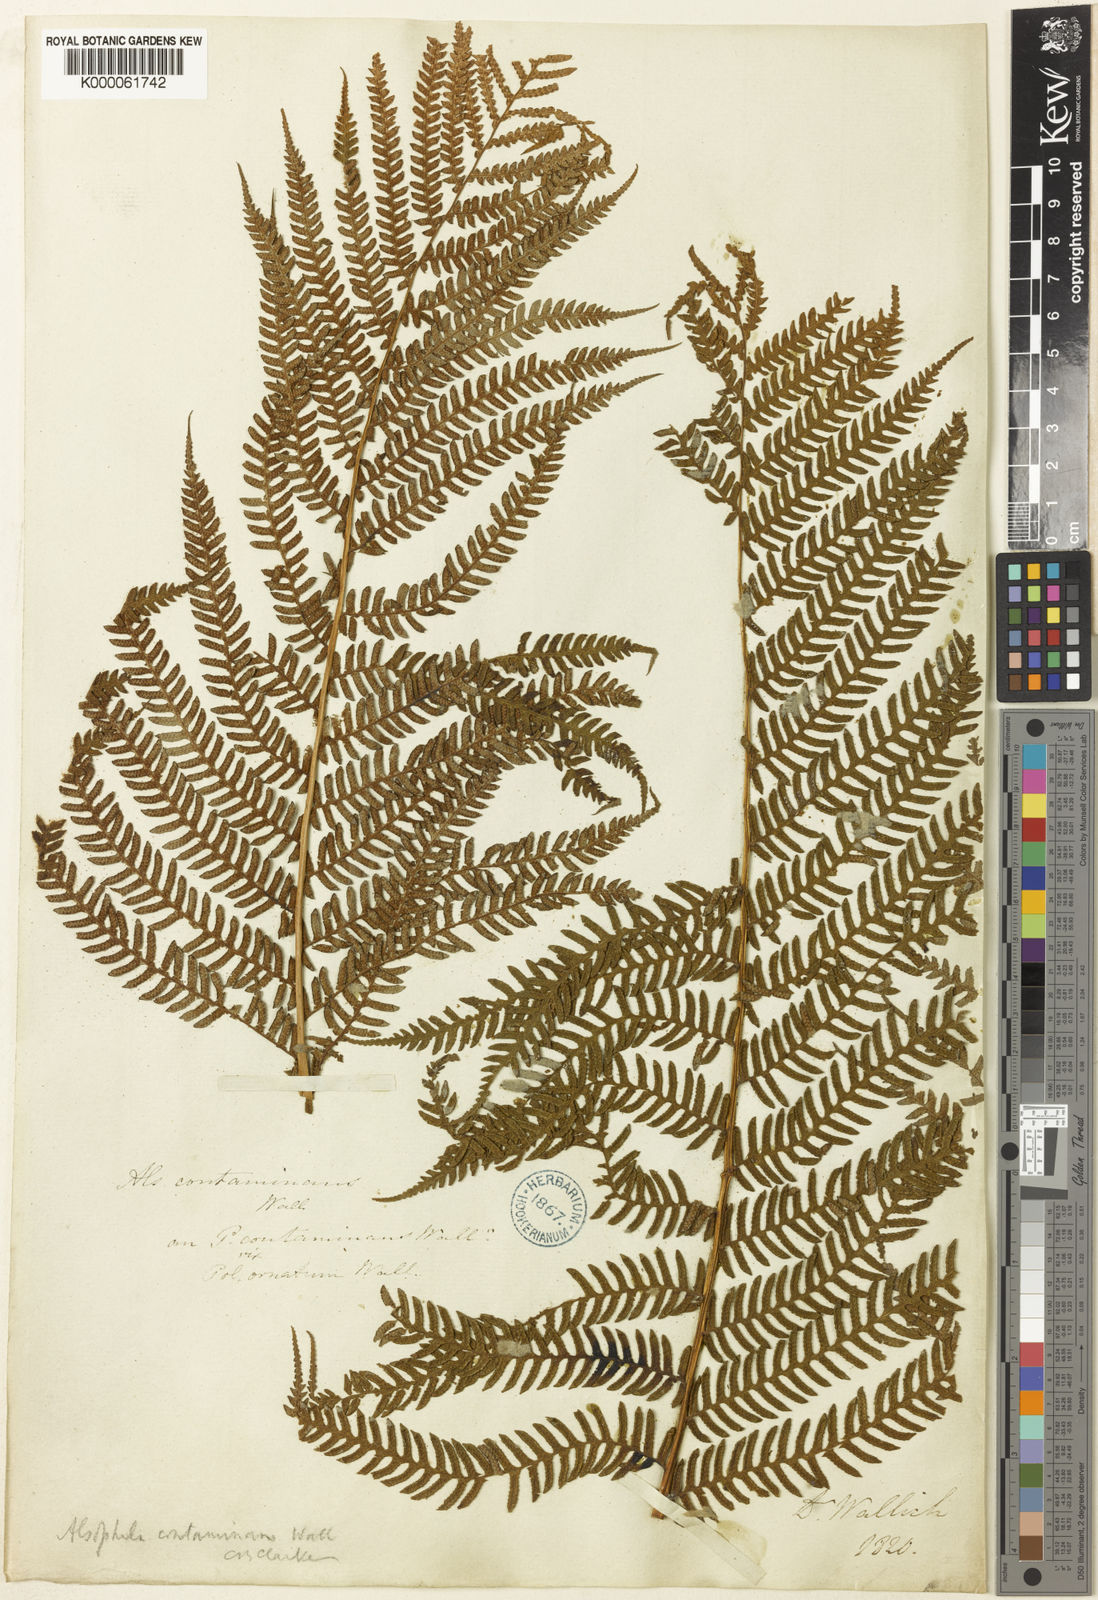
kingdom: Plantae
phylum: Tracheophyta
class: Polypodiopsida
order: Cyatheales
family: Cyatheaceae
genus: Sphaeropteris
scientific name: Sphaeropteris
